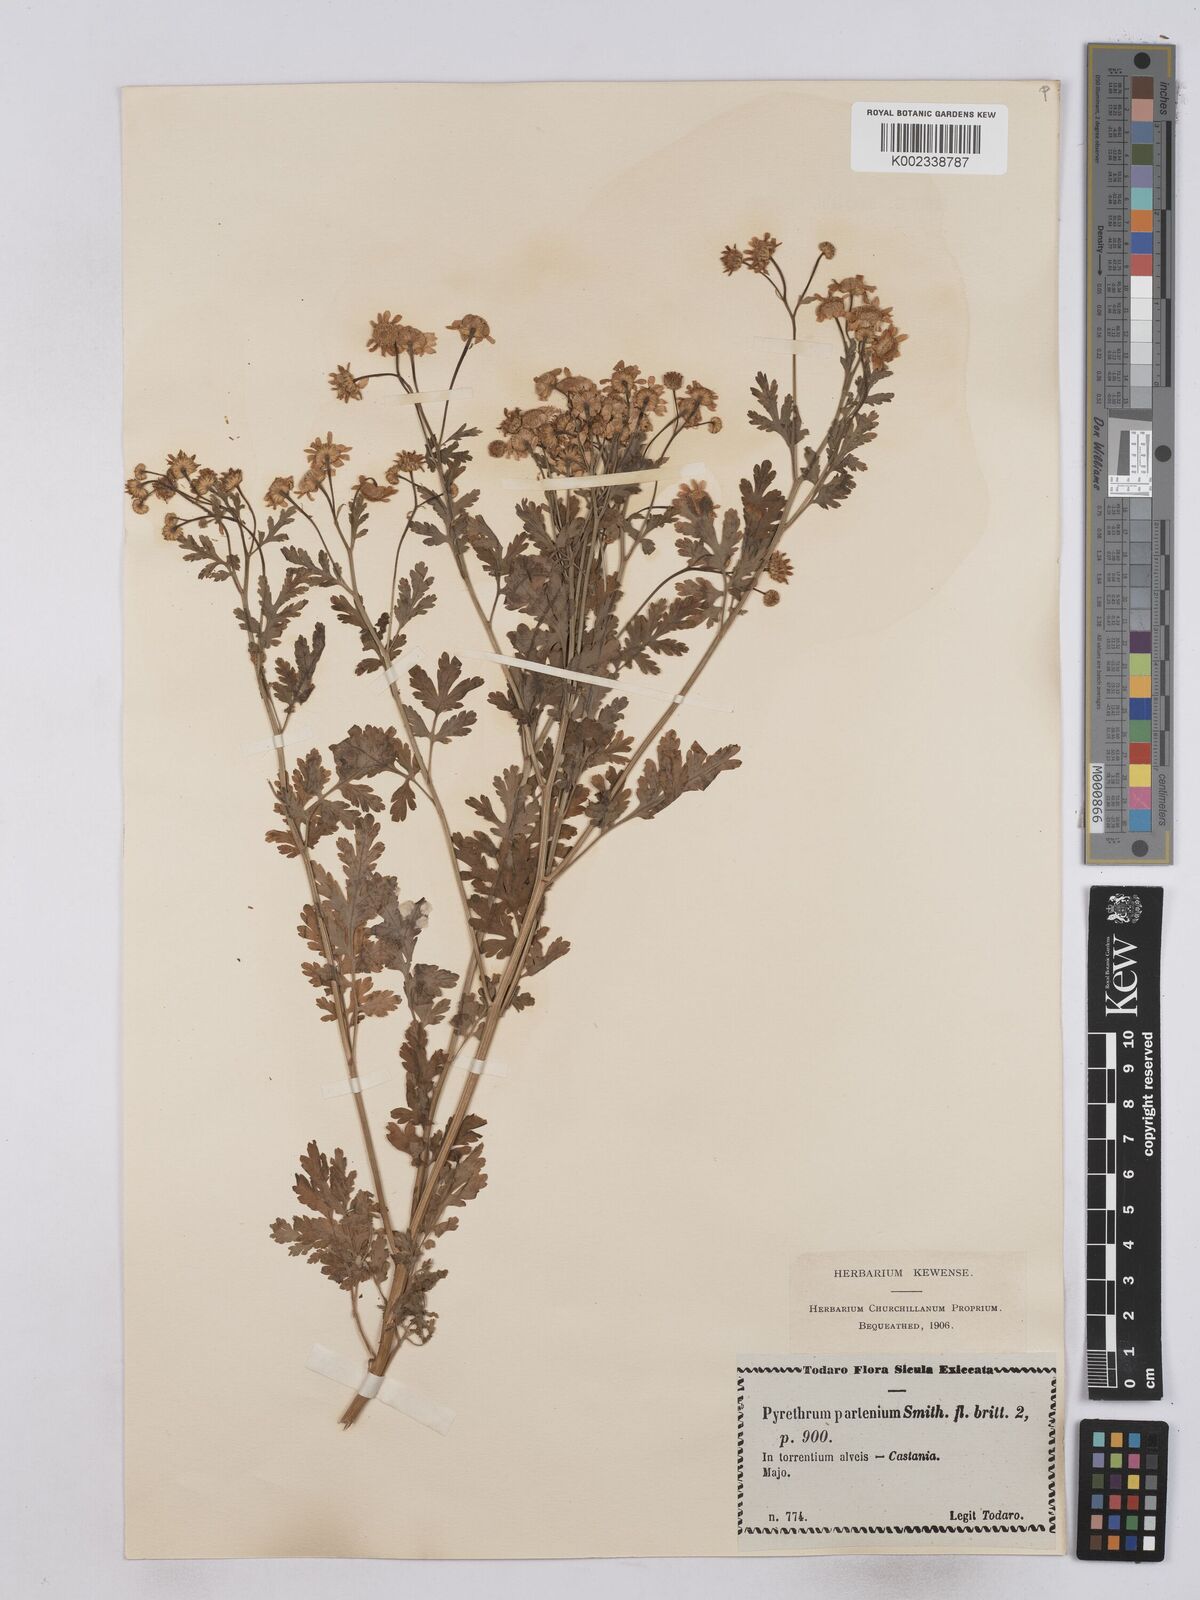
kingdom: Plantae
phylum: Tracheophyta
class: Magnoliopsida
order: Asterales
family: Asteraceae
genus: Tanacetum
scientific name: Tanacetum parthenium
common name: Feverfew
